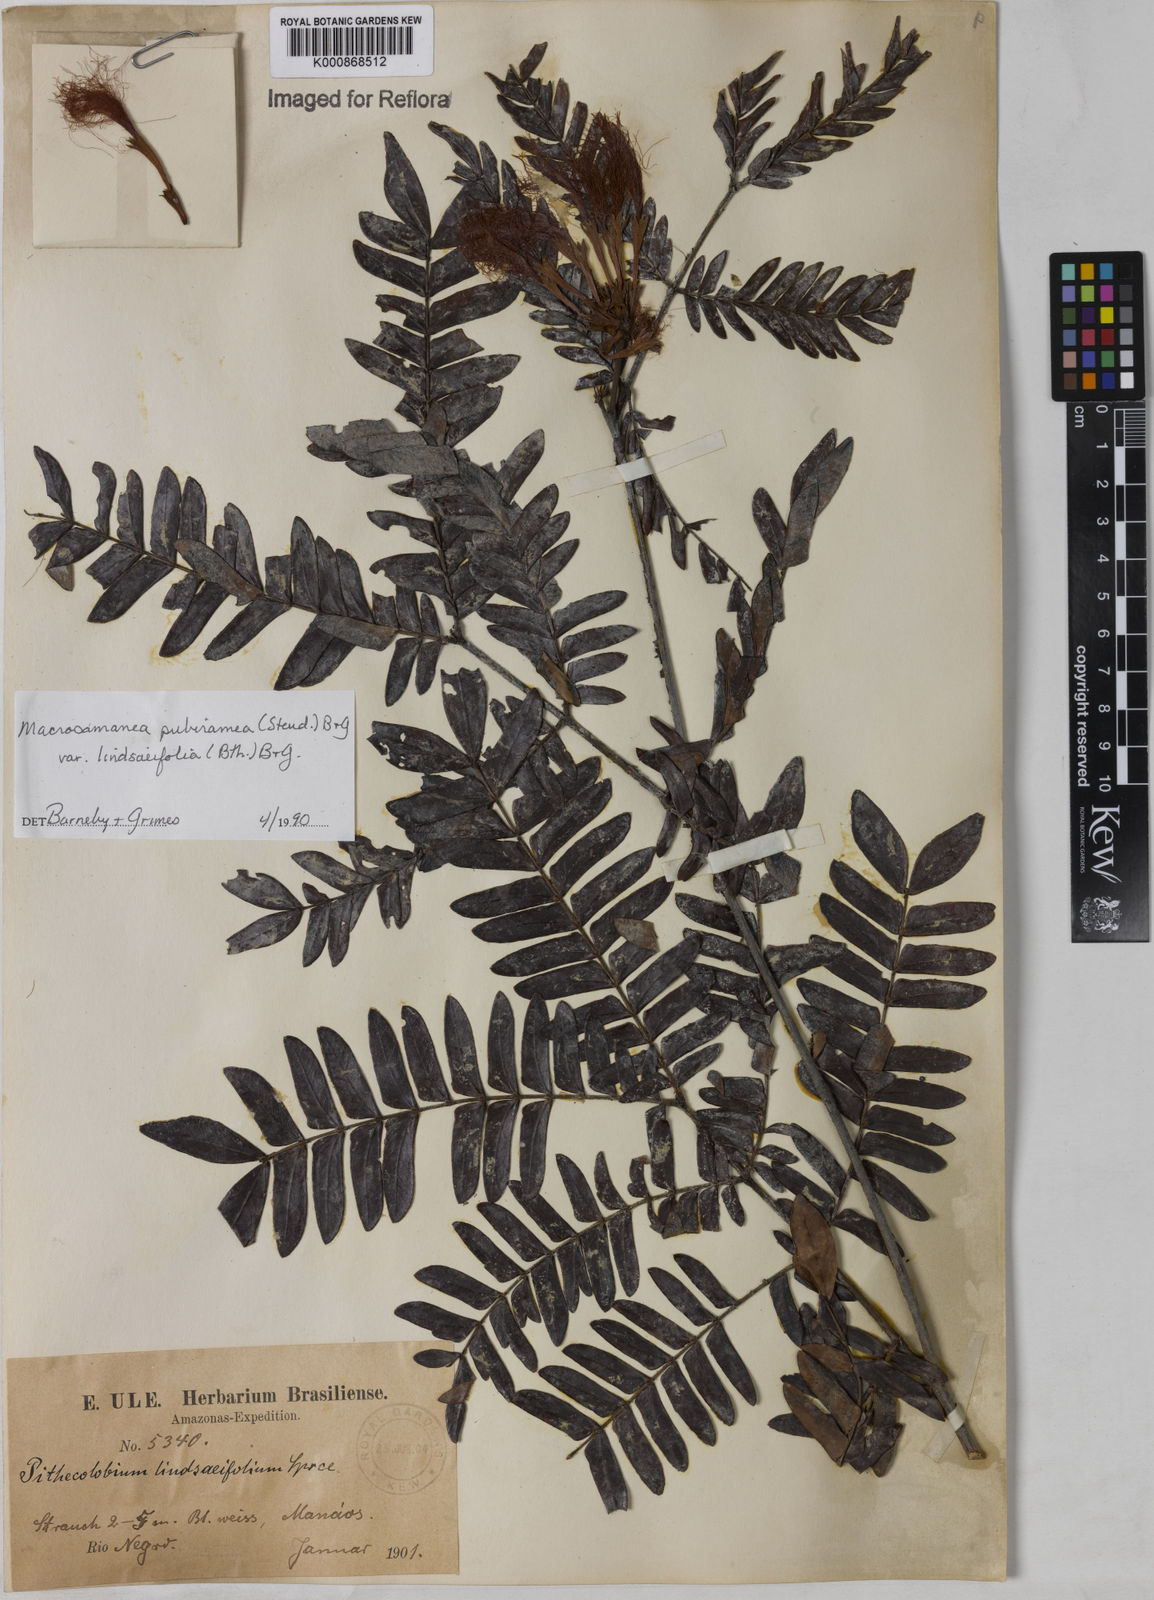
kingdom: Plantae
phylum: Tracheophyta
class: Magnoliopsida
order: Fabales
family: Fabaceae
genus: Macrosamanea
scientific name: Macrosamanea pubiramea
